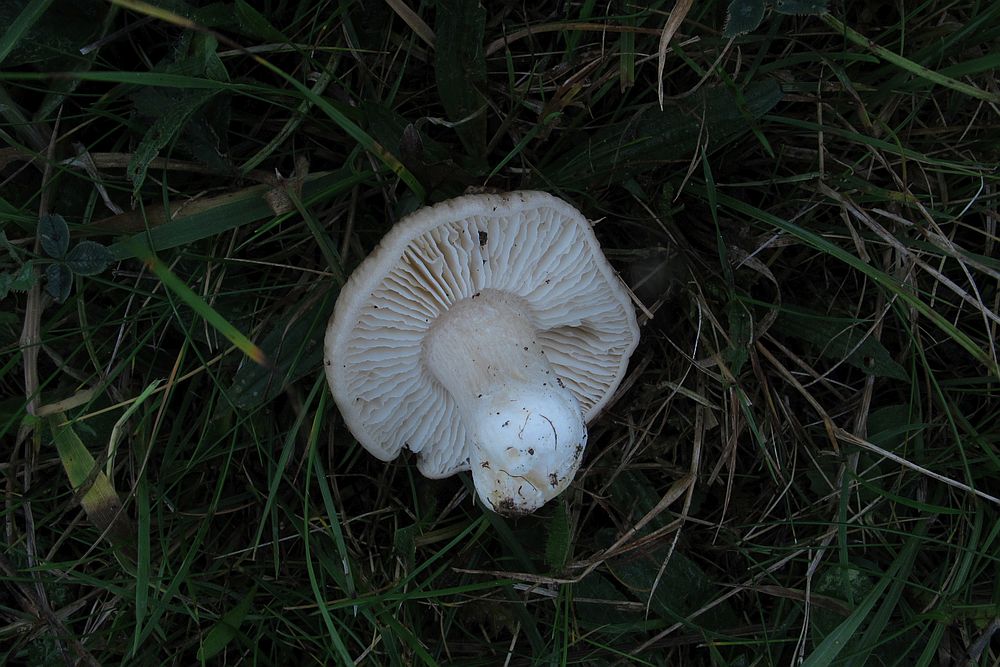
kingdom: Fungi
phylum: Basidiomycota
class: Agaricomycetes
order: Agaricales
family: Entolomataceae
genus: Entoloma
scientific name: Entoloma prunuloides
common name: mel-rødblad
